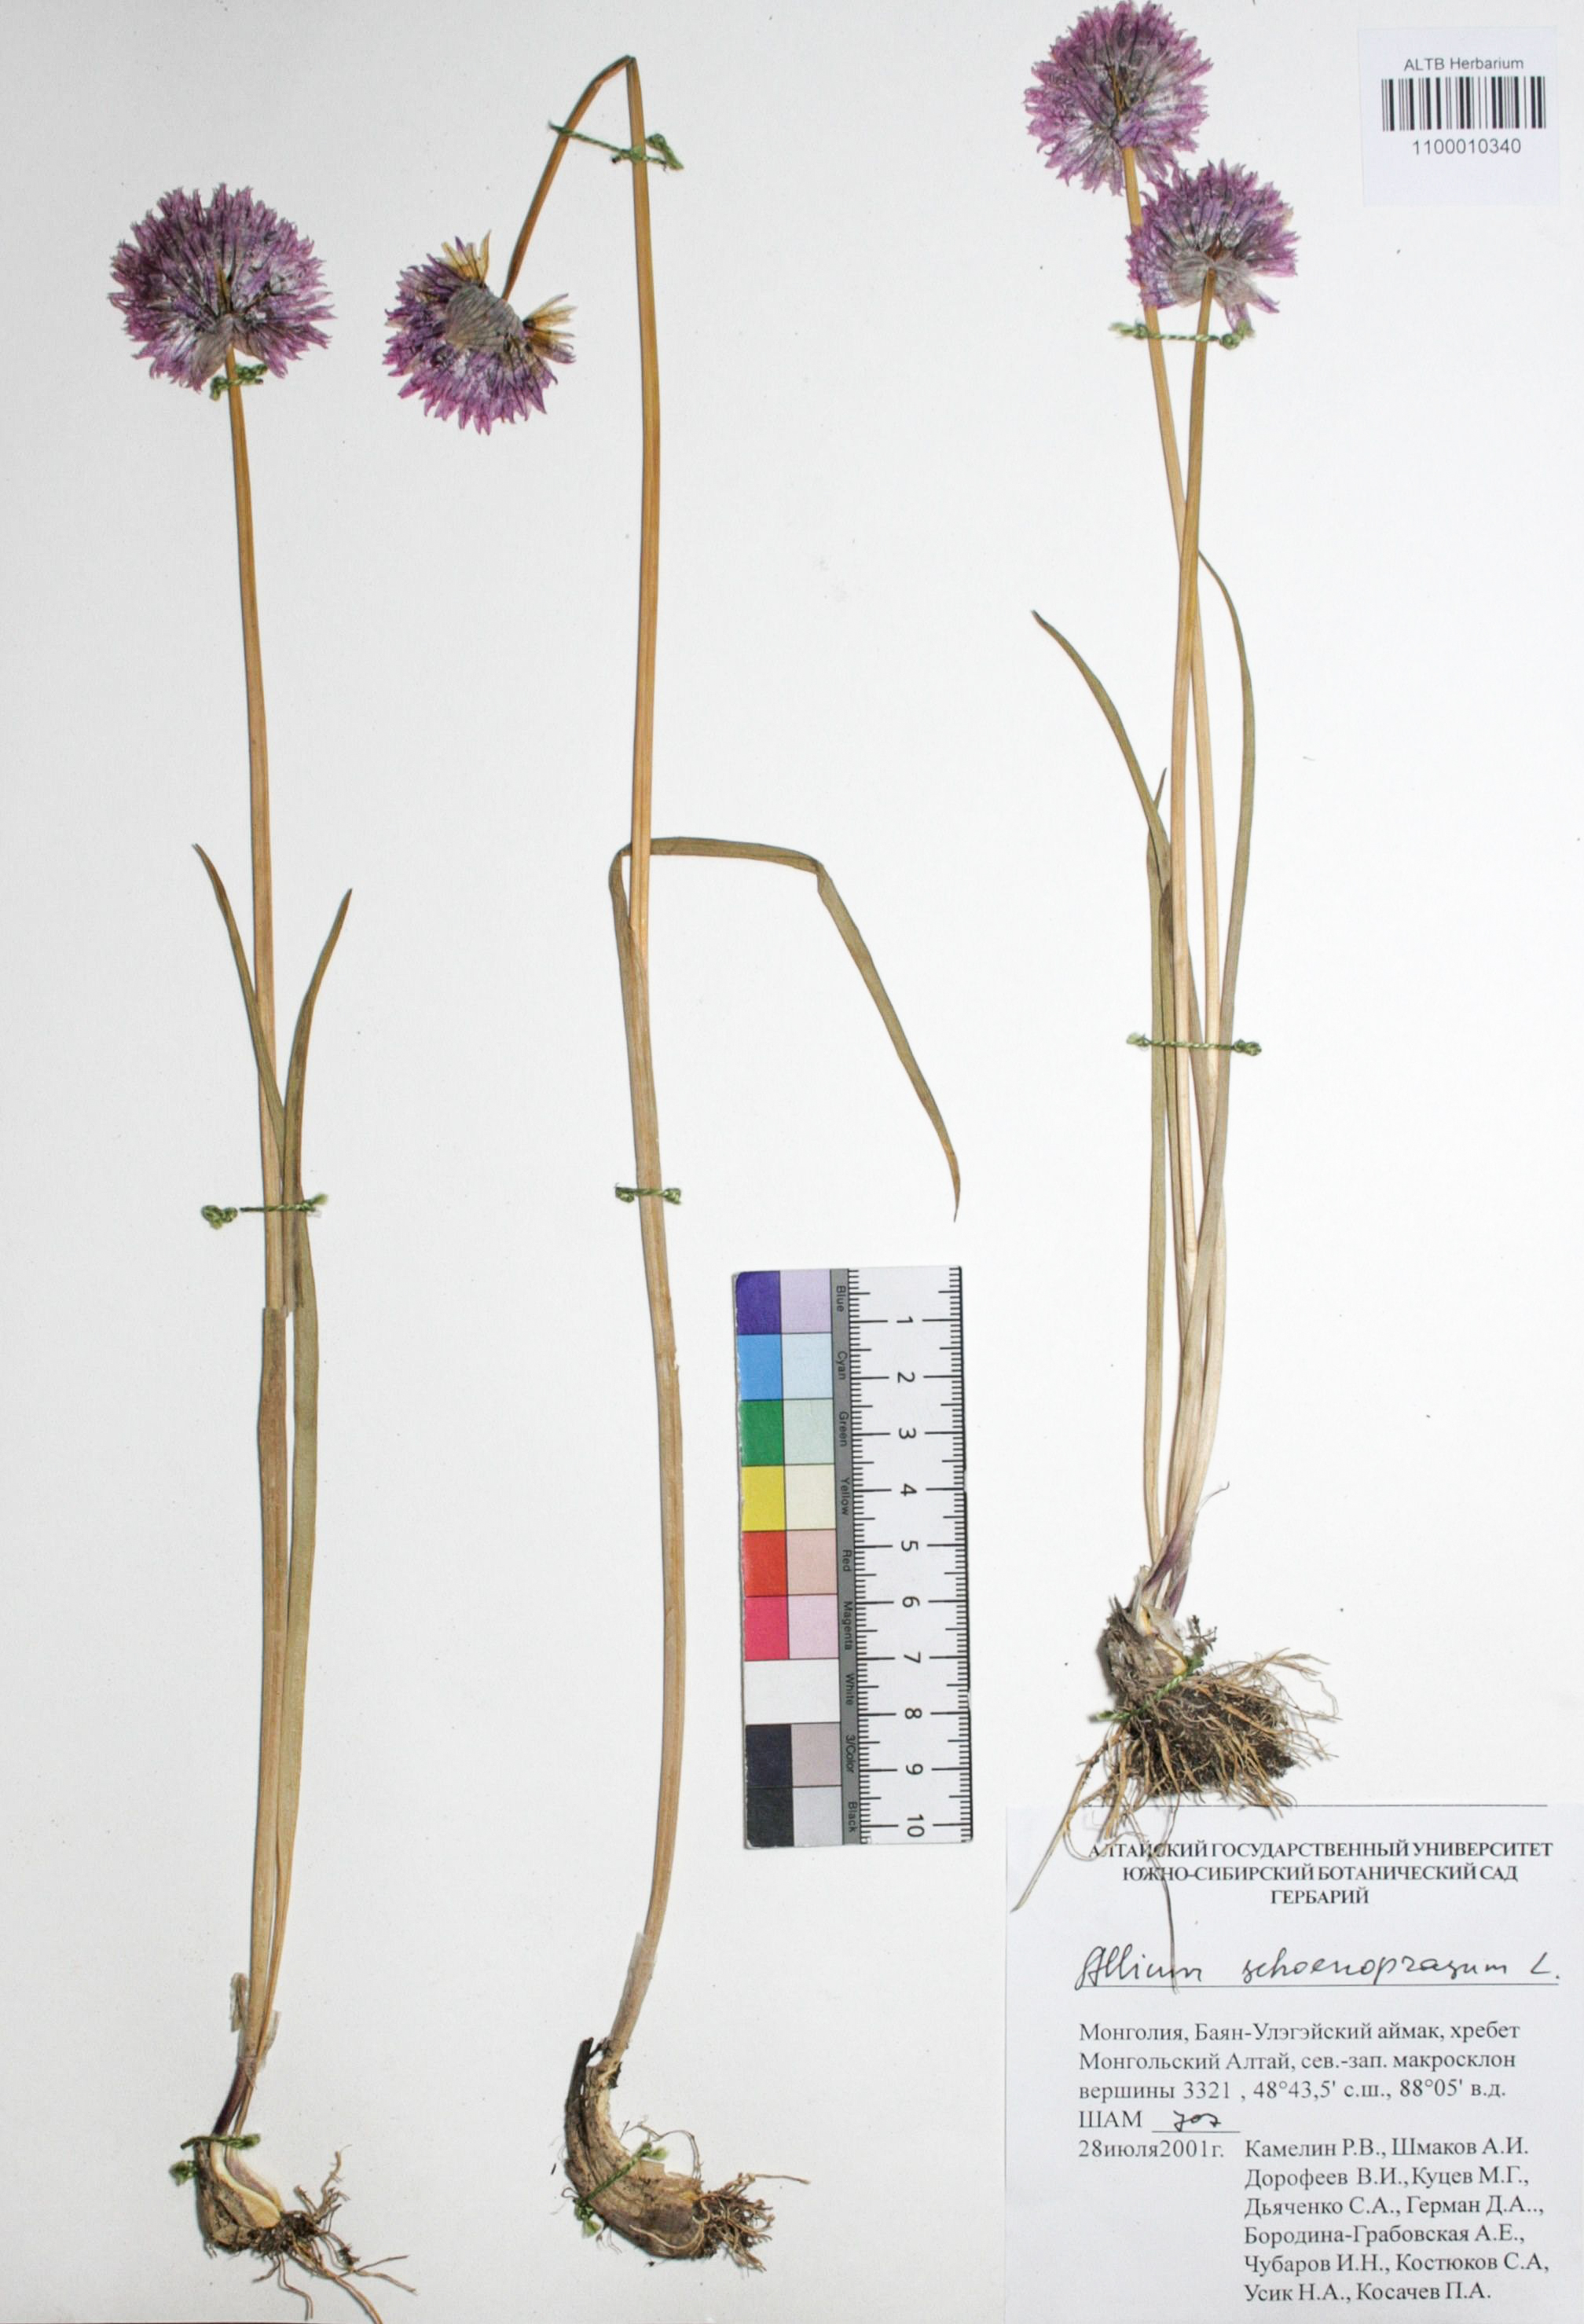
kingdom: Plantae
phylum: Tracheophyta
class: Liliopsida
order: Asparagales
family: Amaryllidaceae
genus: Allium
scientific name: Allium schoenoprasum
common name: Chives
